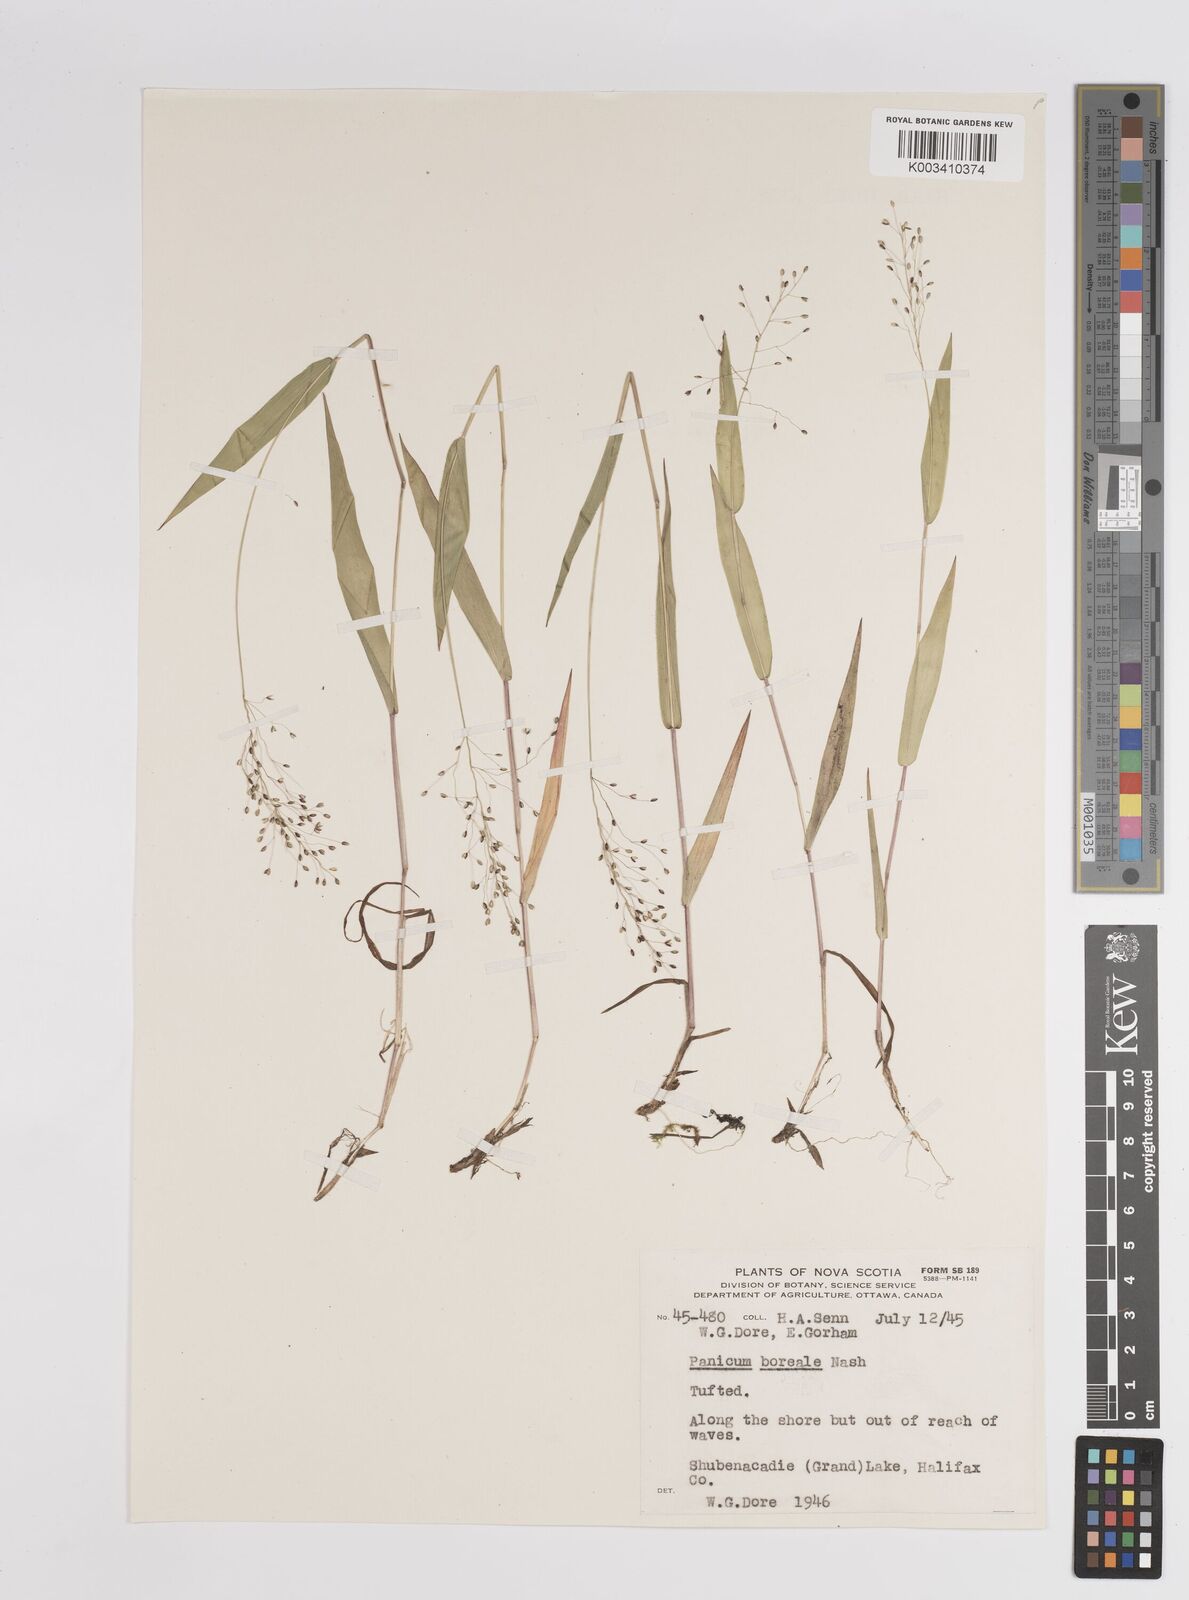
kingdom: Plantae
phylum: Tracheophyta
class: Liliopsida
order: Poales
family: Poaceae
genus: Dichanthelium
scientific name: Dichanthelium boreale
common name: Northern panicgrass
